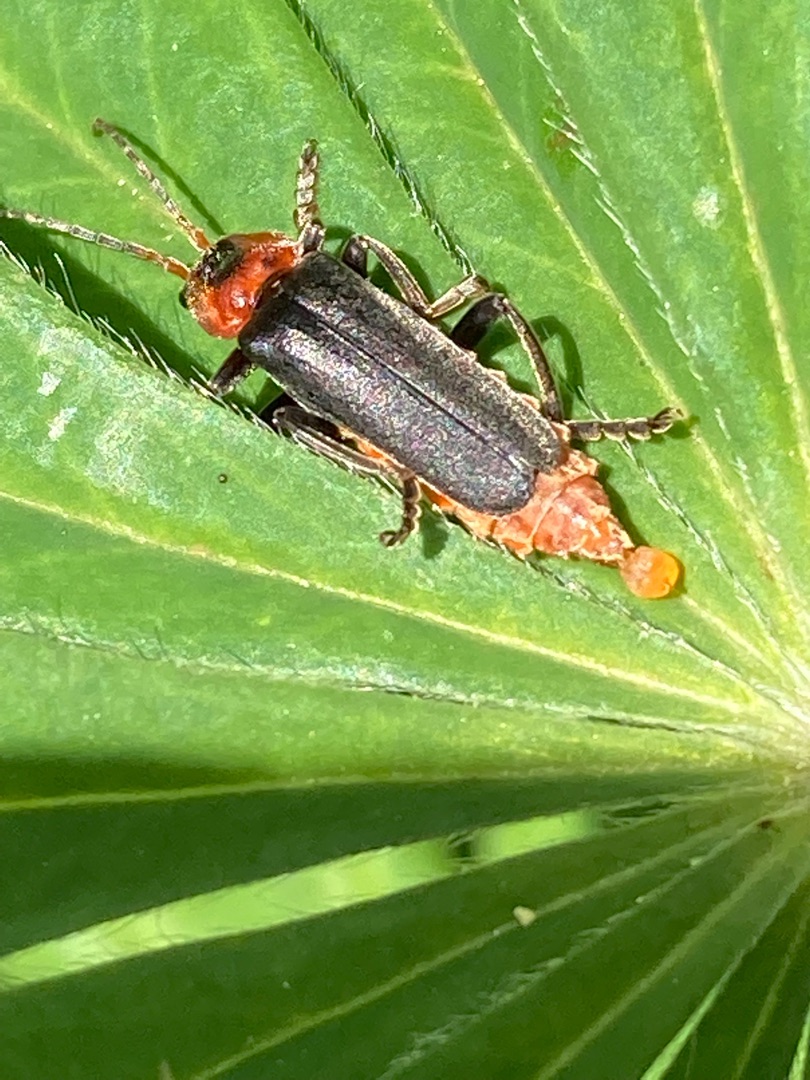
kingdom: Animalia
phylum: Arthropoda
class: Insecta
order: Coleoptera
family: Cantharidae
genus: Cantharis
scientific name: Cantharis fusca
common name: Stor blødvinge
